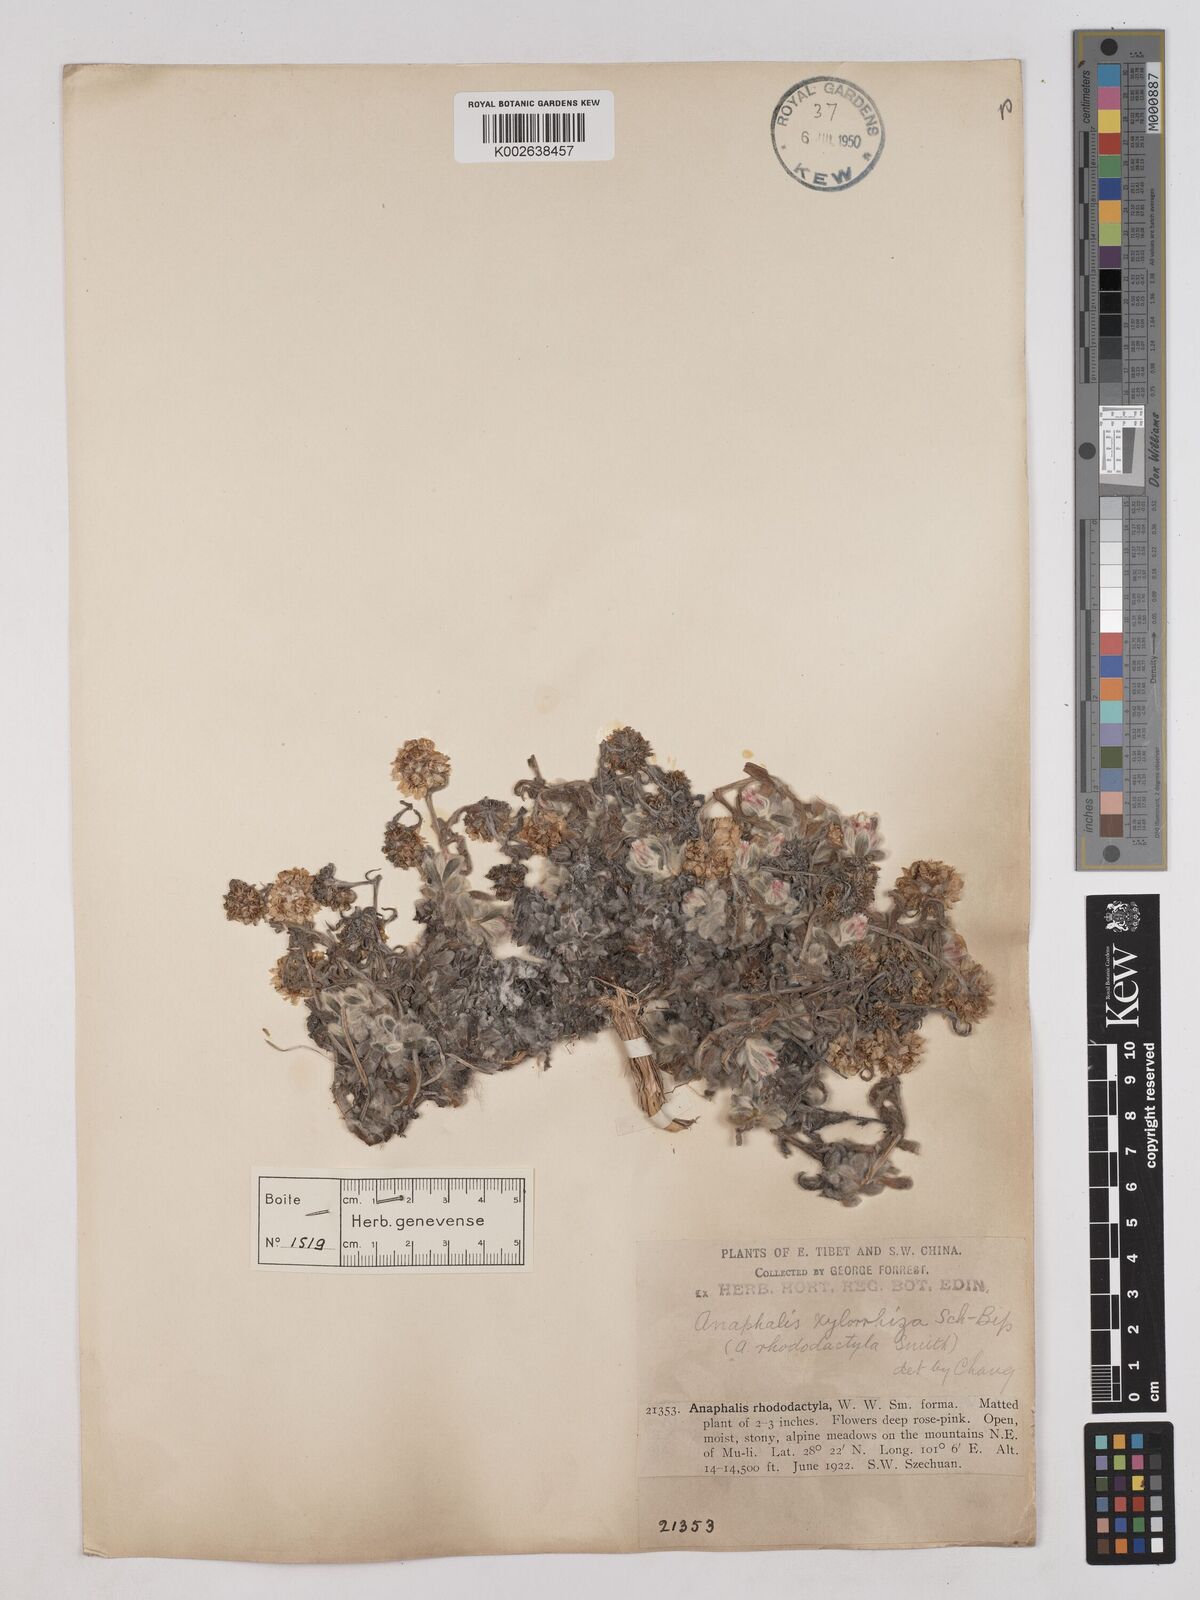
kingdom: Plantae
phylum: Tracheophyta
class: Magnoliopsida
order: Asterales
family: Asteraceae
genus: Anaphalis
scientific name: Anaphalis xylorhiza
